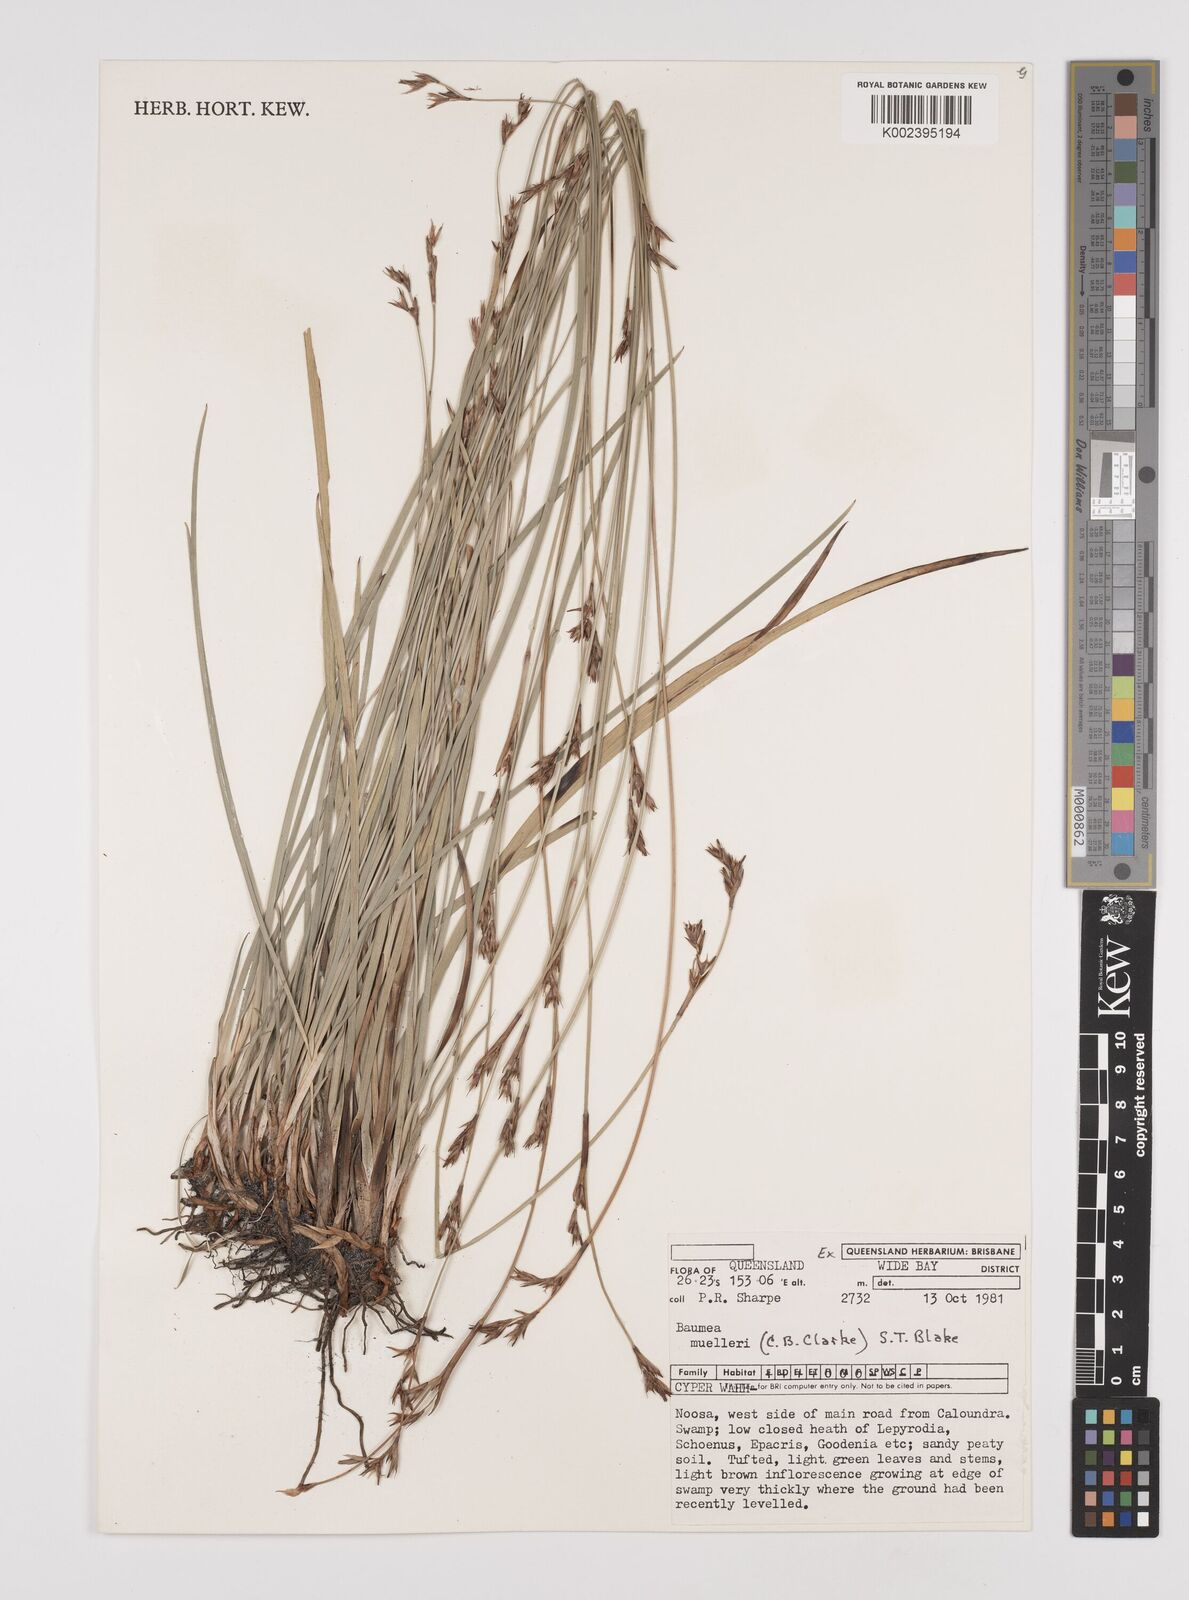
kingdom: Plantae
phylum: Tracheophyta
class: Liliopsida
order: Poales
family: Cyperaceae
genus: Machaerina
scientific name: Machaerina muelleri
